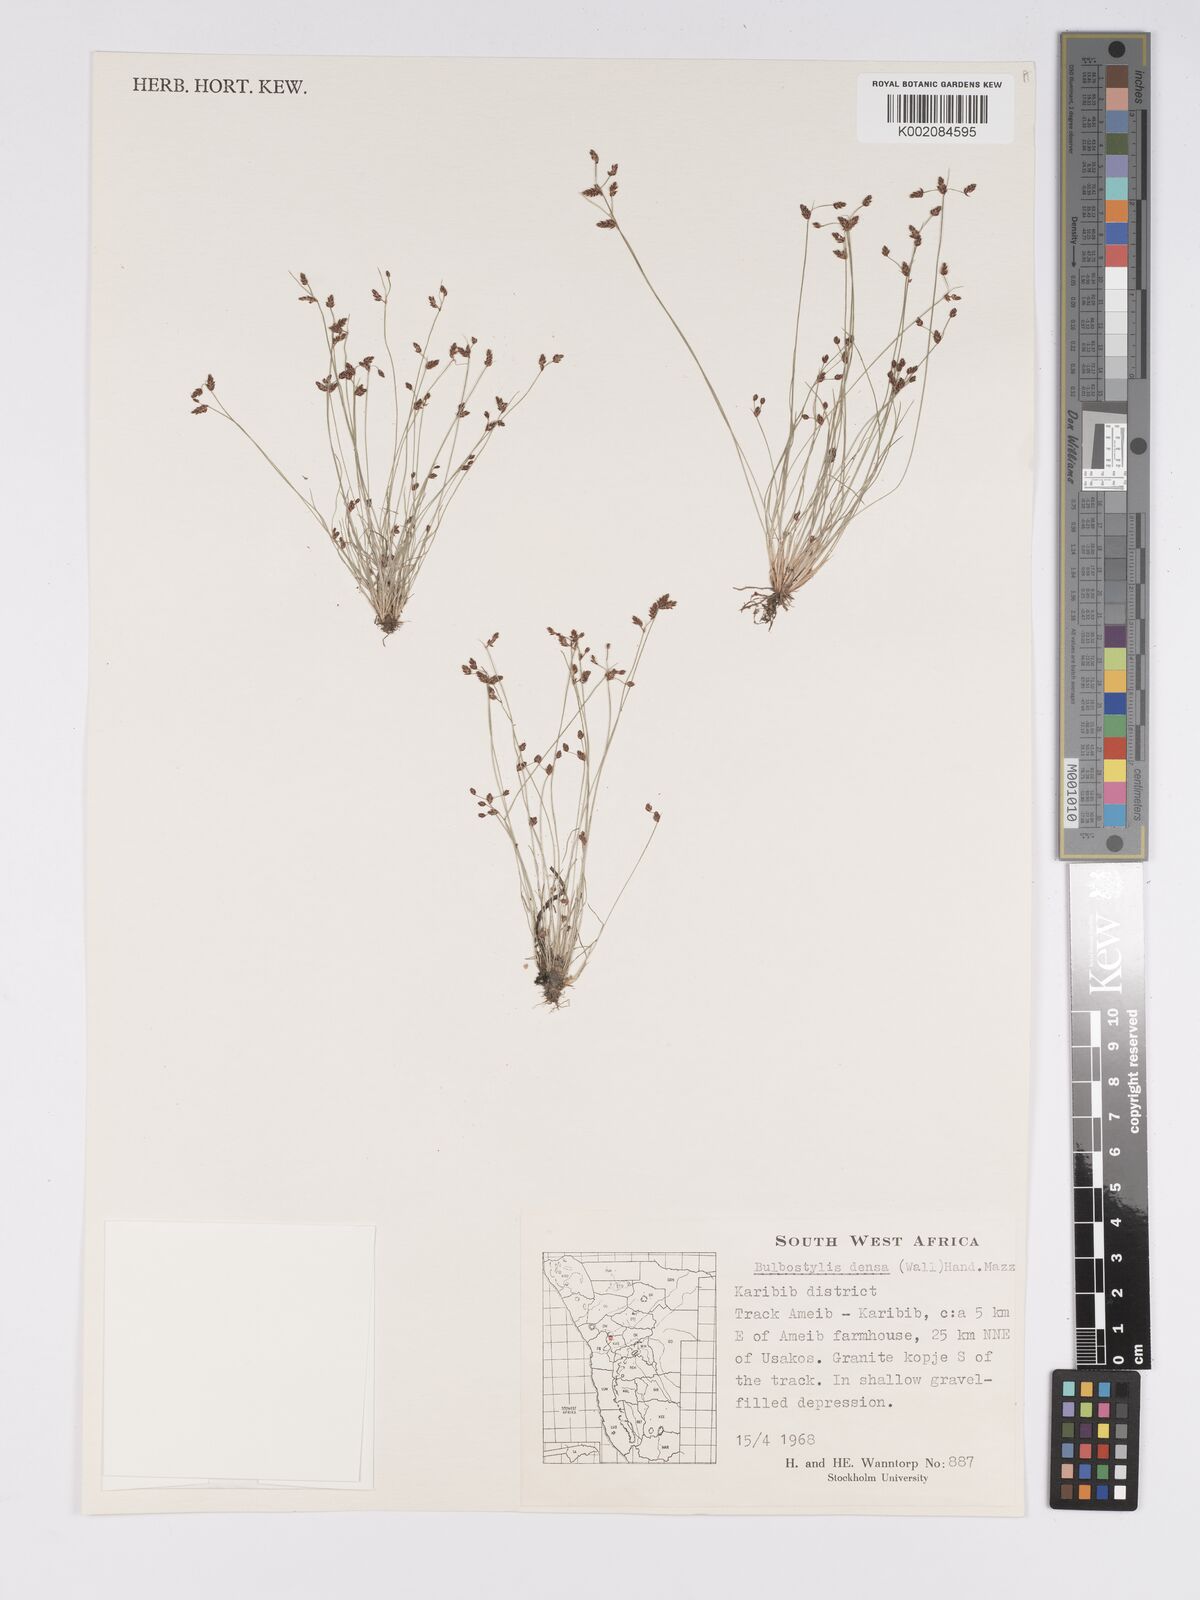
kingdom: Plantae
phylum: Tracheophyta
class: Liliopsida
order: Poales
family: Cyperaceae
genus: Bulbostylis
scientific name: Bulbostylis densa
